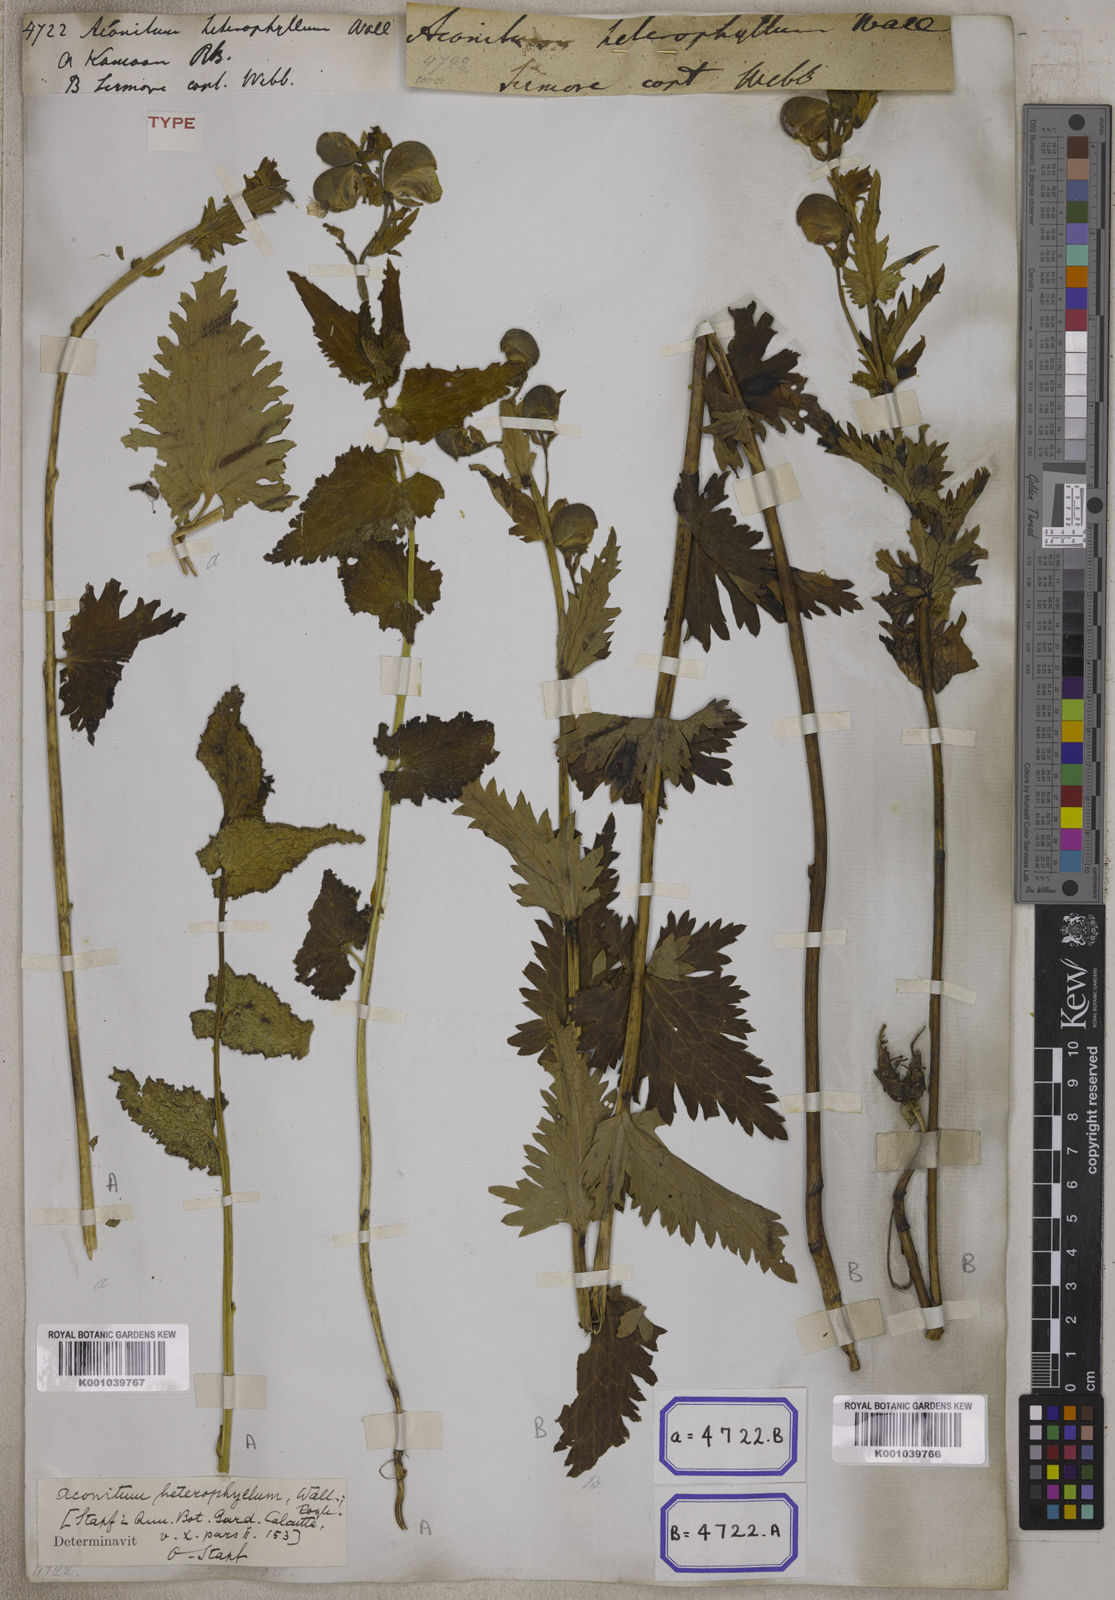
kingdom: Plantae
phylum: Tracheophyta
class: Magnoliopsida
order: Ranunculales
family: Ranunculaceae
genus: Aconitum
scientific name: Aconitum
